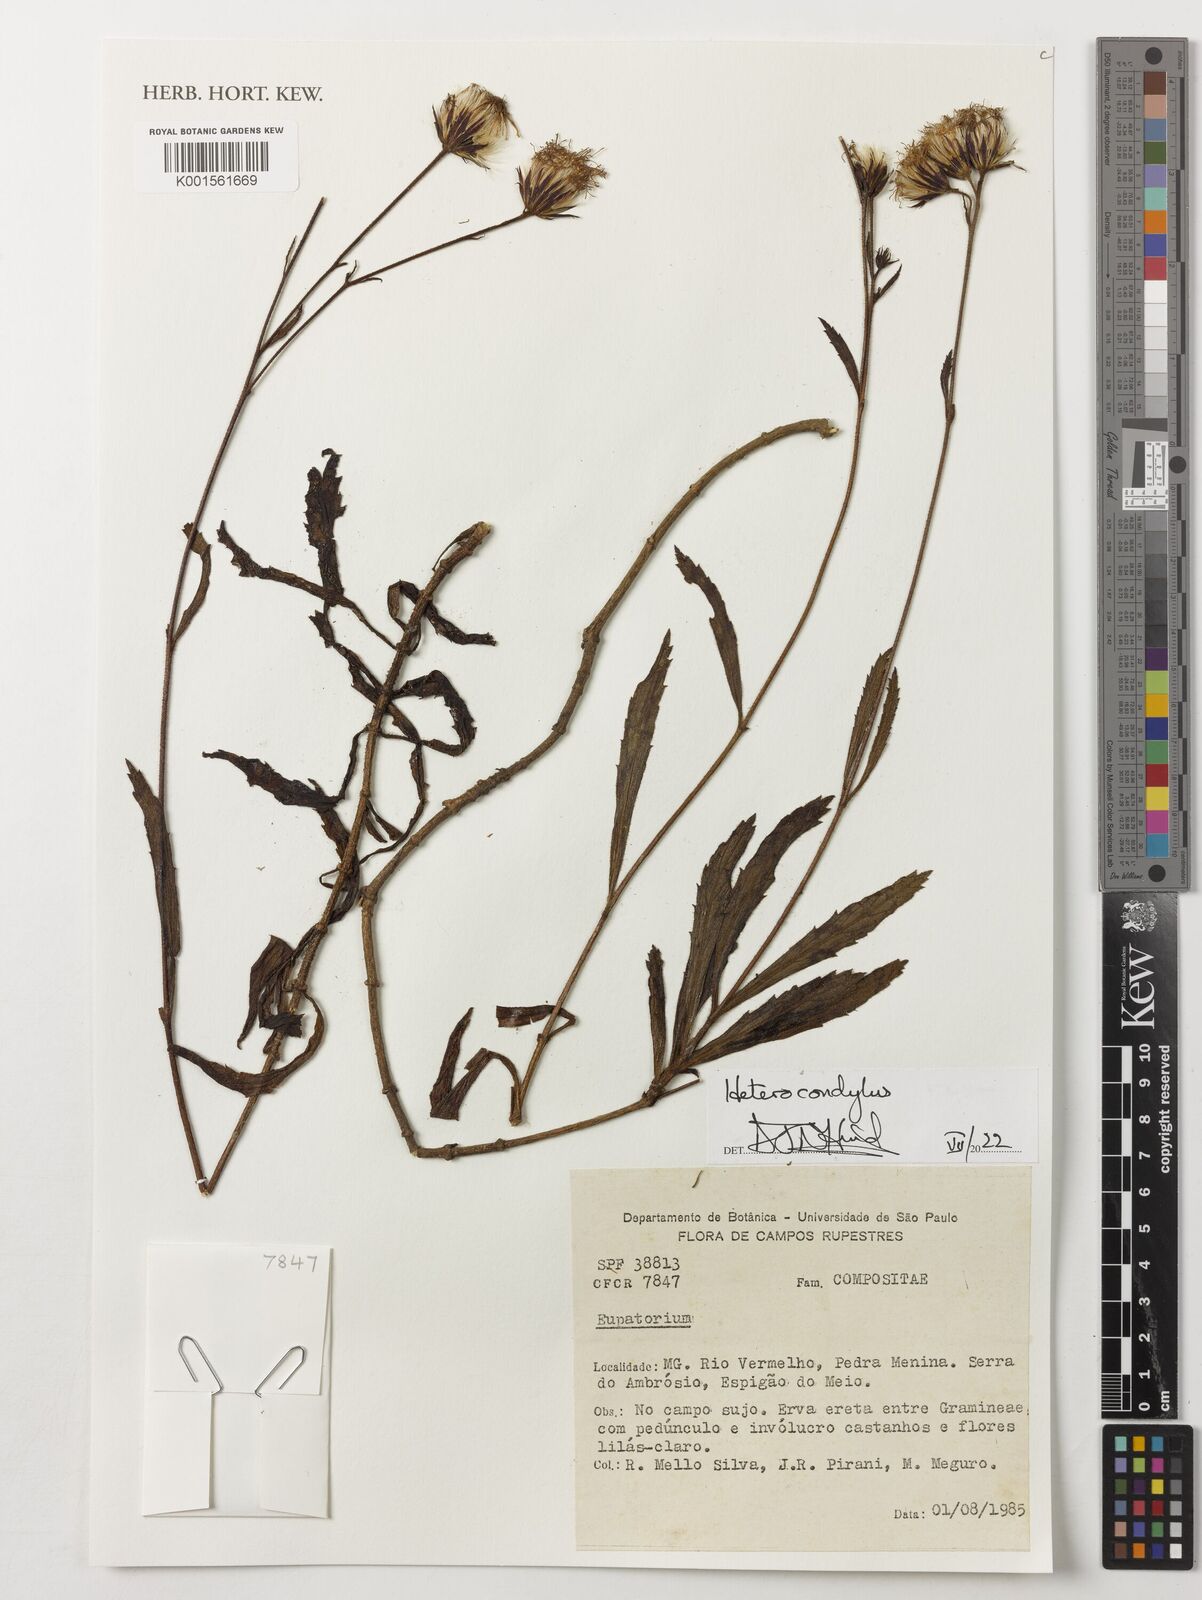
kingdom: Plantae
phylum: Tracheophyta
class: Magnoliopsida
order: Asterales
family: Asteraceae
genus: Heterocondylus
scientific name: Heterocondylus
